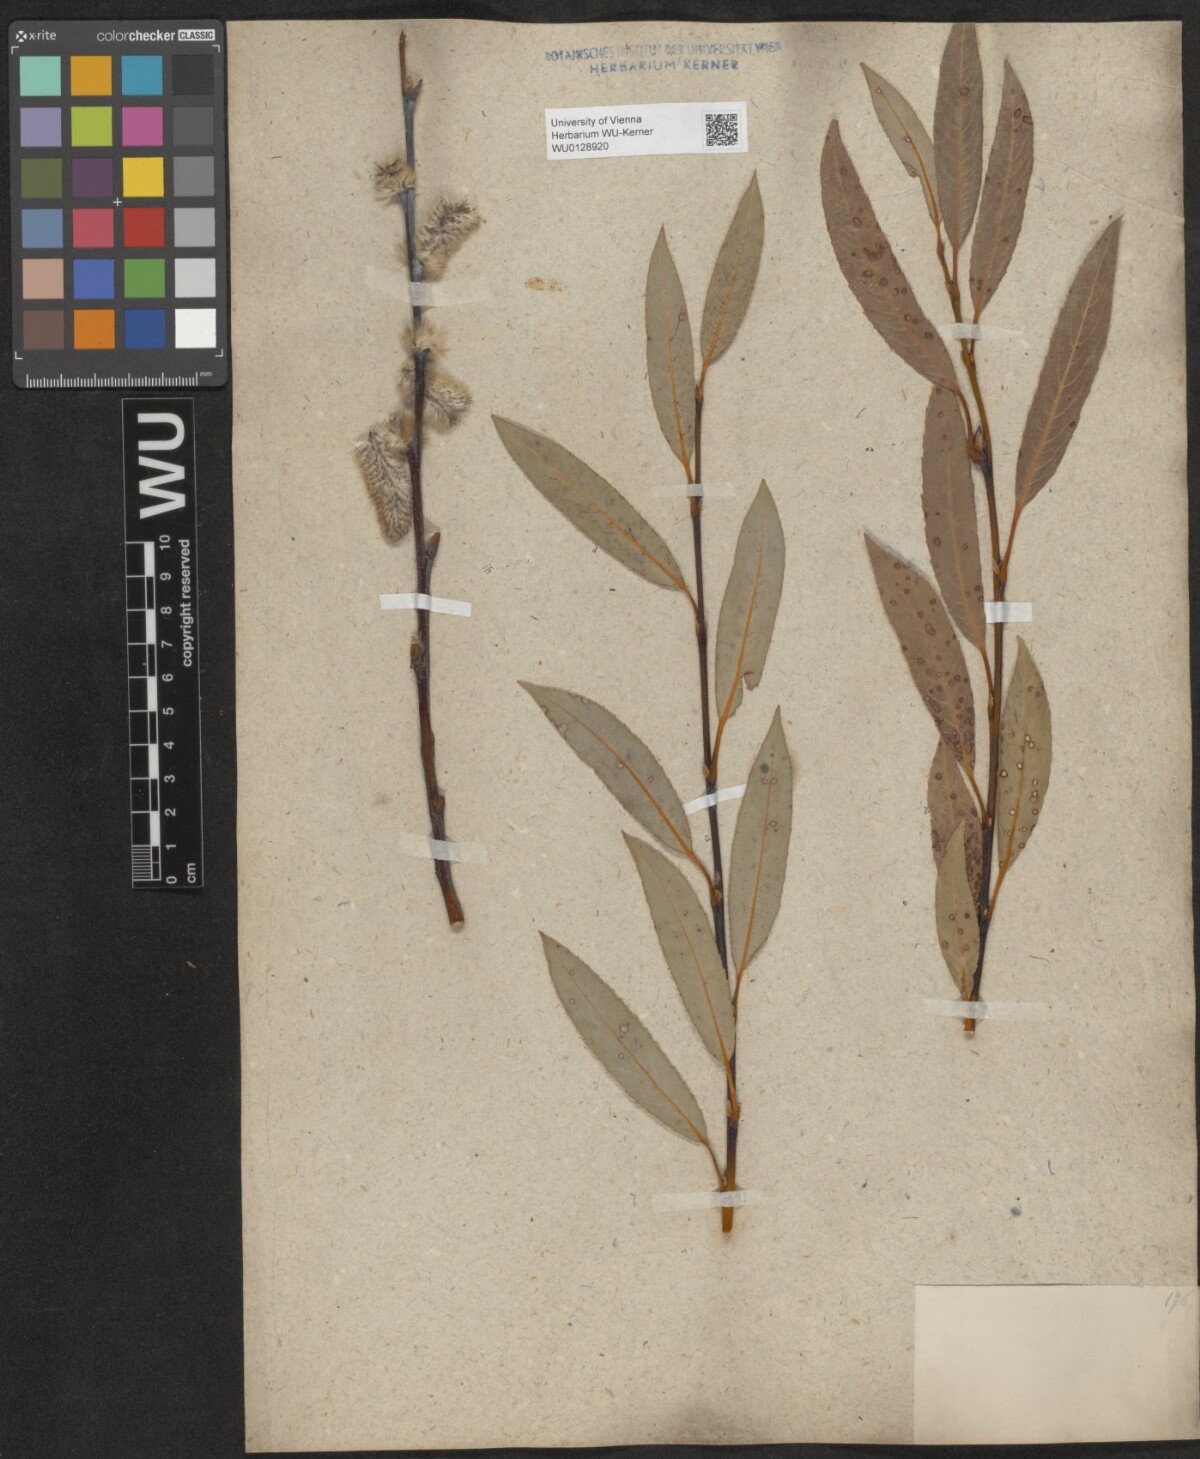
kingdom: Plantae
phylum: Tracheophyta
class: Magnoliopsida
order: Malpighiales
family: Salicaceae
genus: Salix
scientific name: Salix daphnoides
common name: European violet-willow
